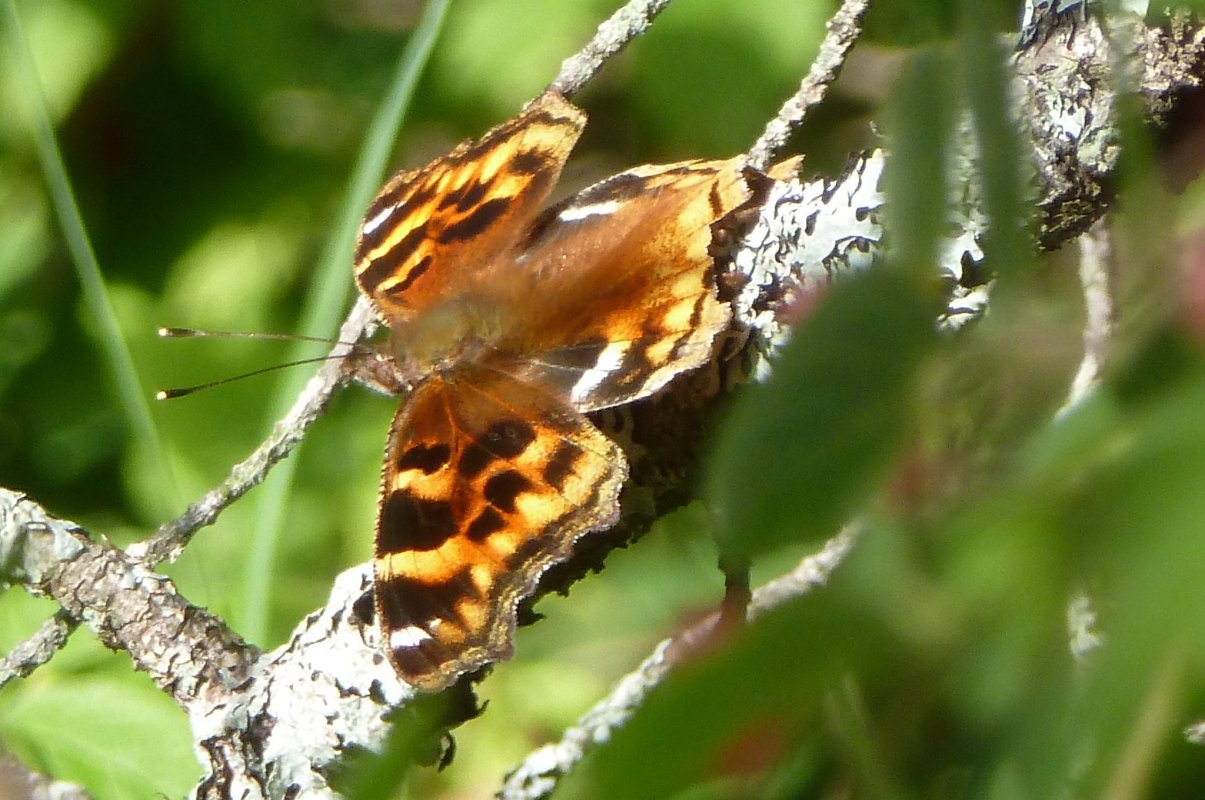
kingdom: Animalia
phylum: Arthropoda
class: Insecta
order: Lepidoptera
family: Nymphalidae
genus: Polygonia
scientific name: Polygonia vaualbum
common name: Compton Tortoiseshell
